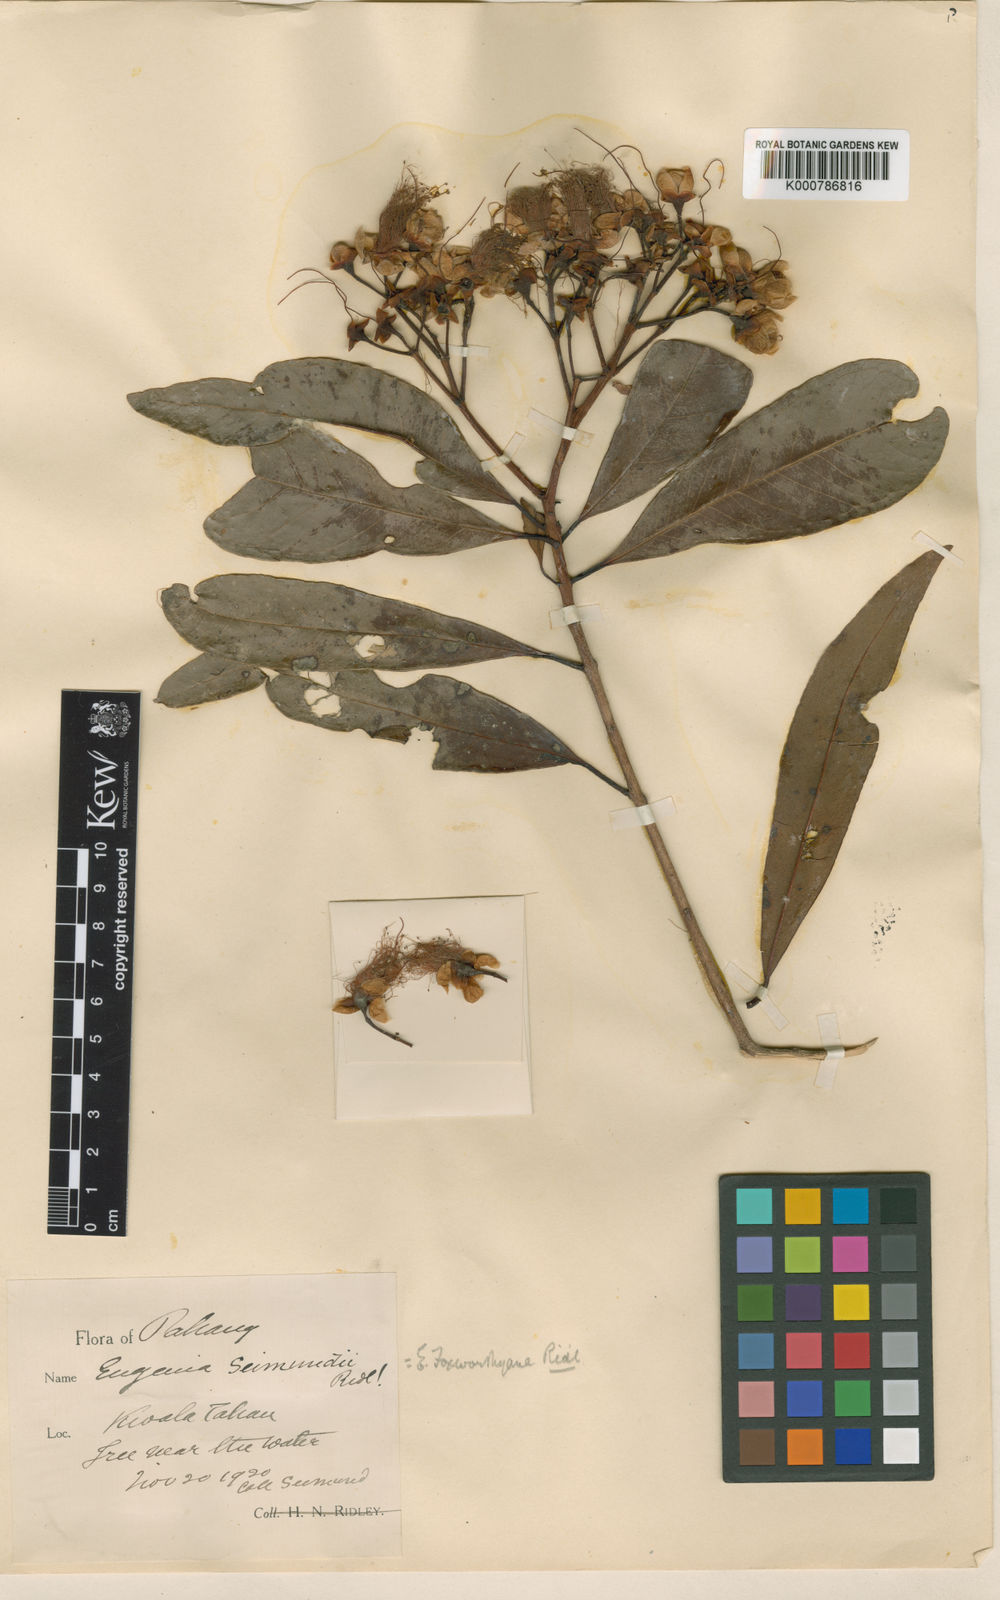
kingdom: Plantae
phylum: Tracheophyta
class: Magnoliopsida
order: Myrtales
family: Myrtaceae
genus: Syzygium
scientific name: Syzygium koghianum
